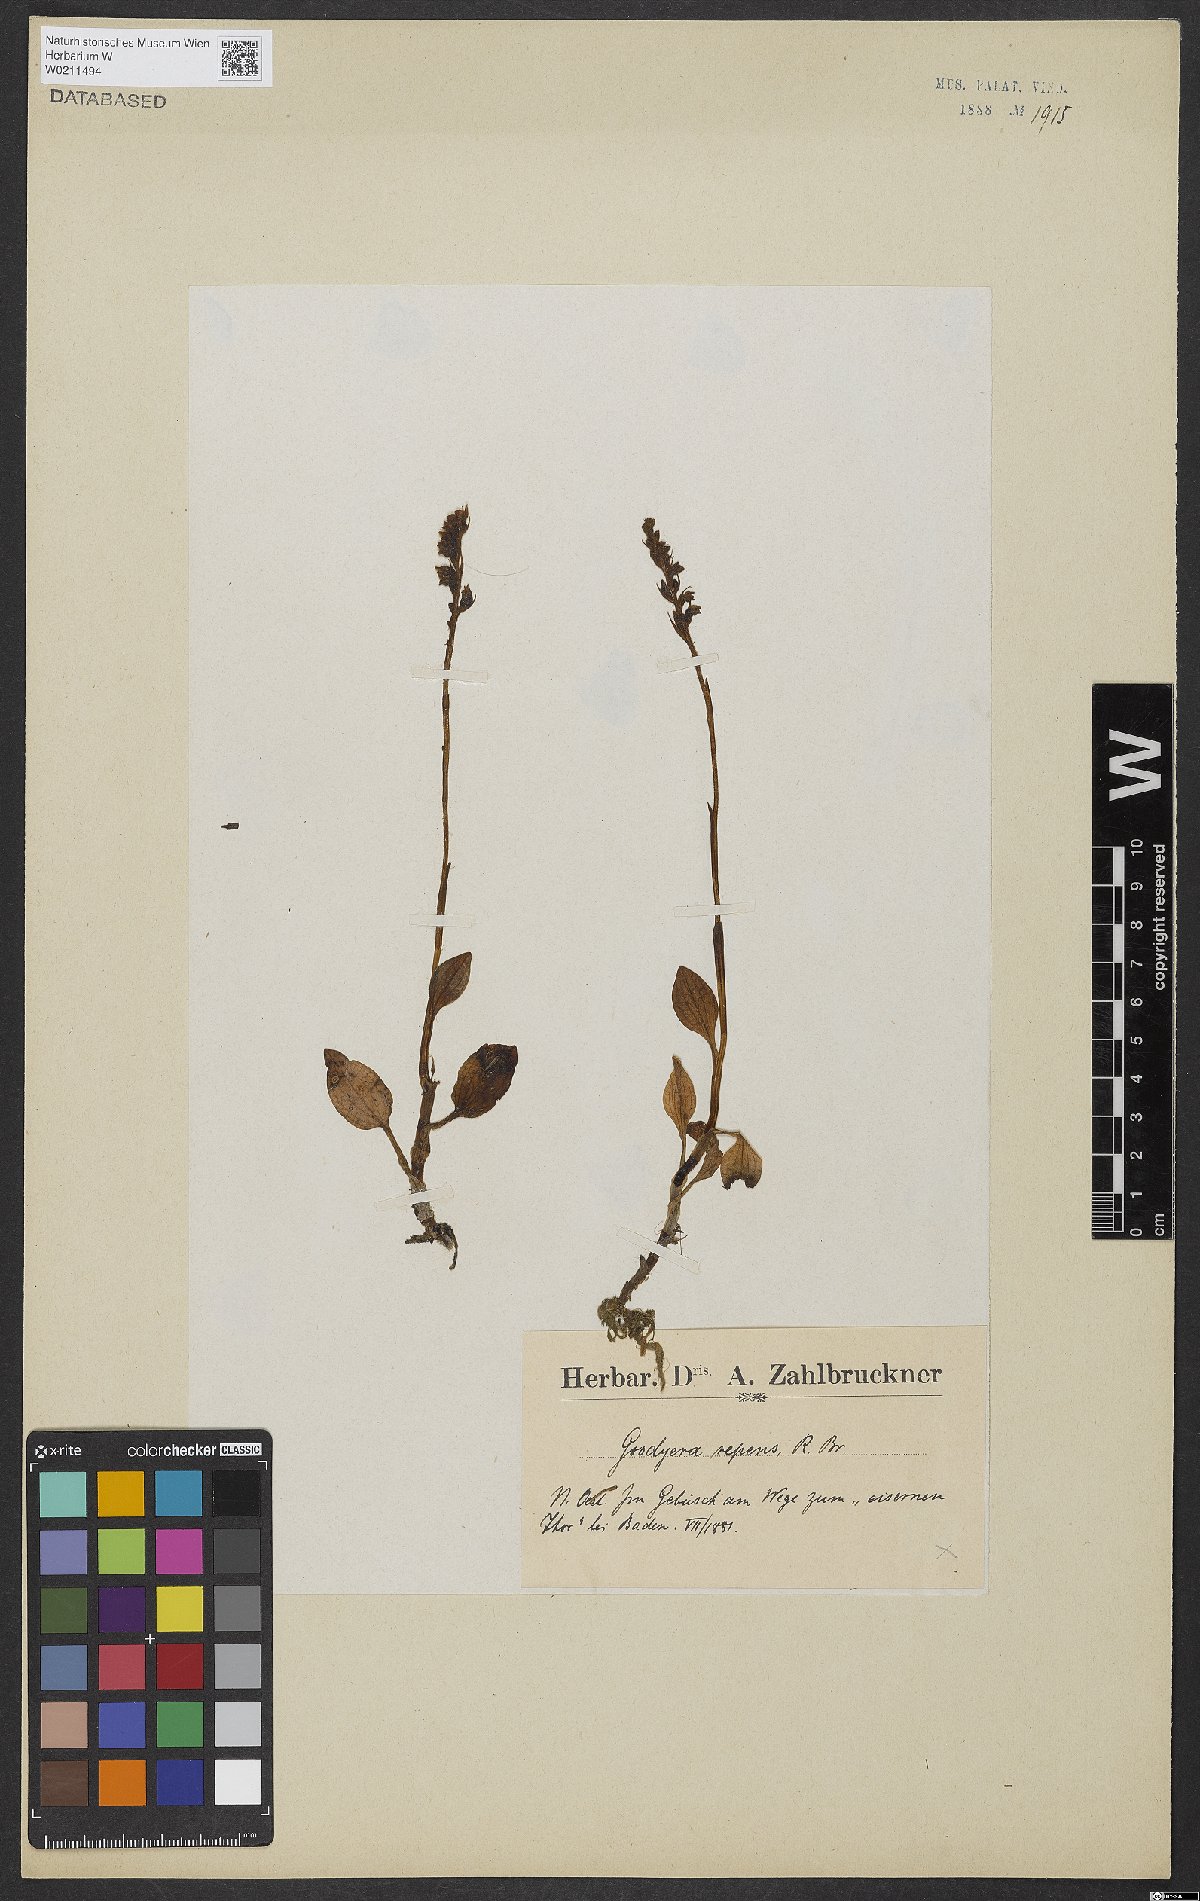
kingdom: Plantae
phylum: Tracheophyta
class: Liliopsida
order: Asparagales
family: Orchidaceae
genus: Goodyera
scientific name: Goodyera repens
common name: Creeping lady's-tresses
